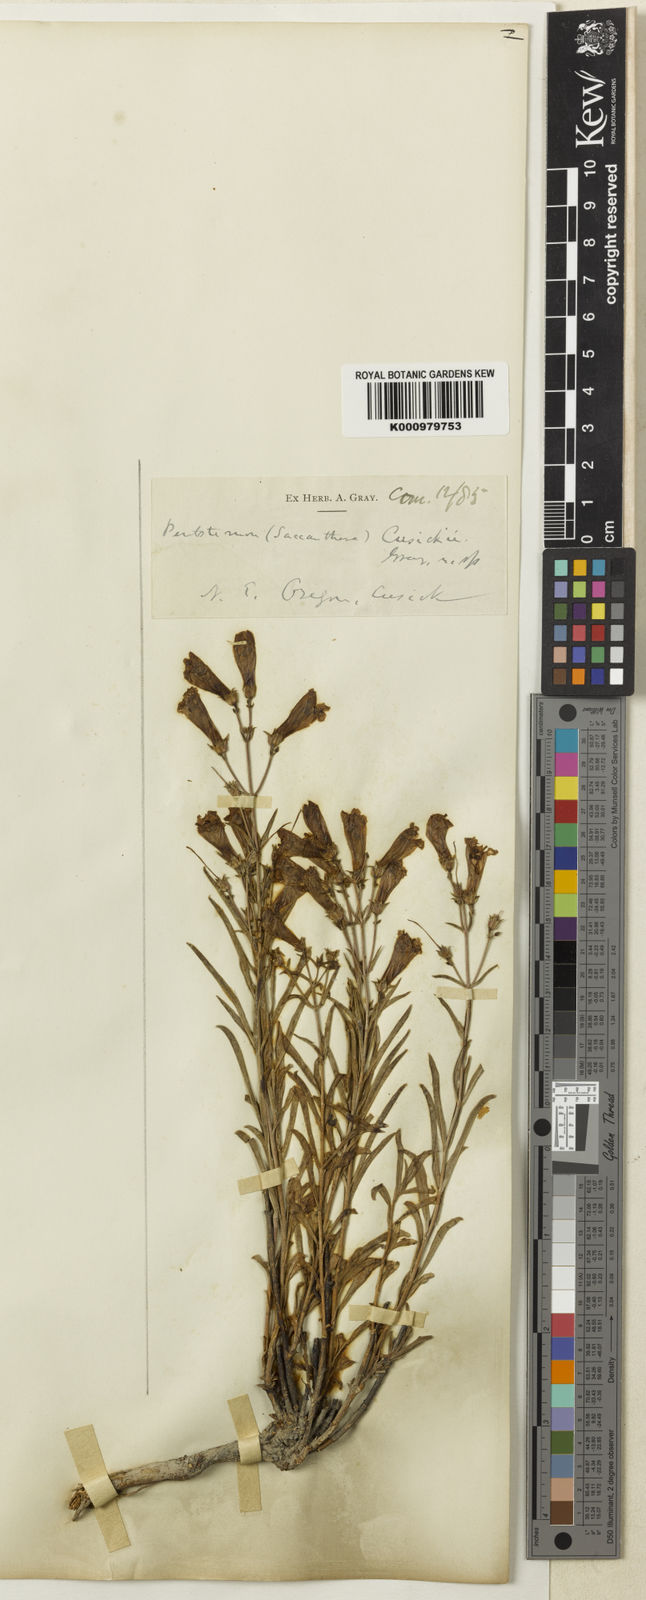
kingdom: Plantae
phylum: Tracheophyta
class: Magnoliopsida
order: Lamiales
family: Plantaginaceae
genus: Penstemon
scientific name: Penstemon cusickii
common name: Cusick's penstemon
